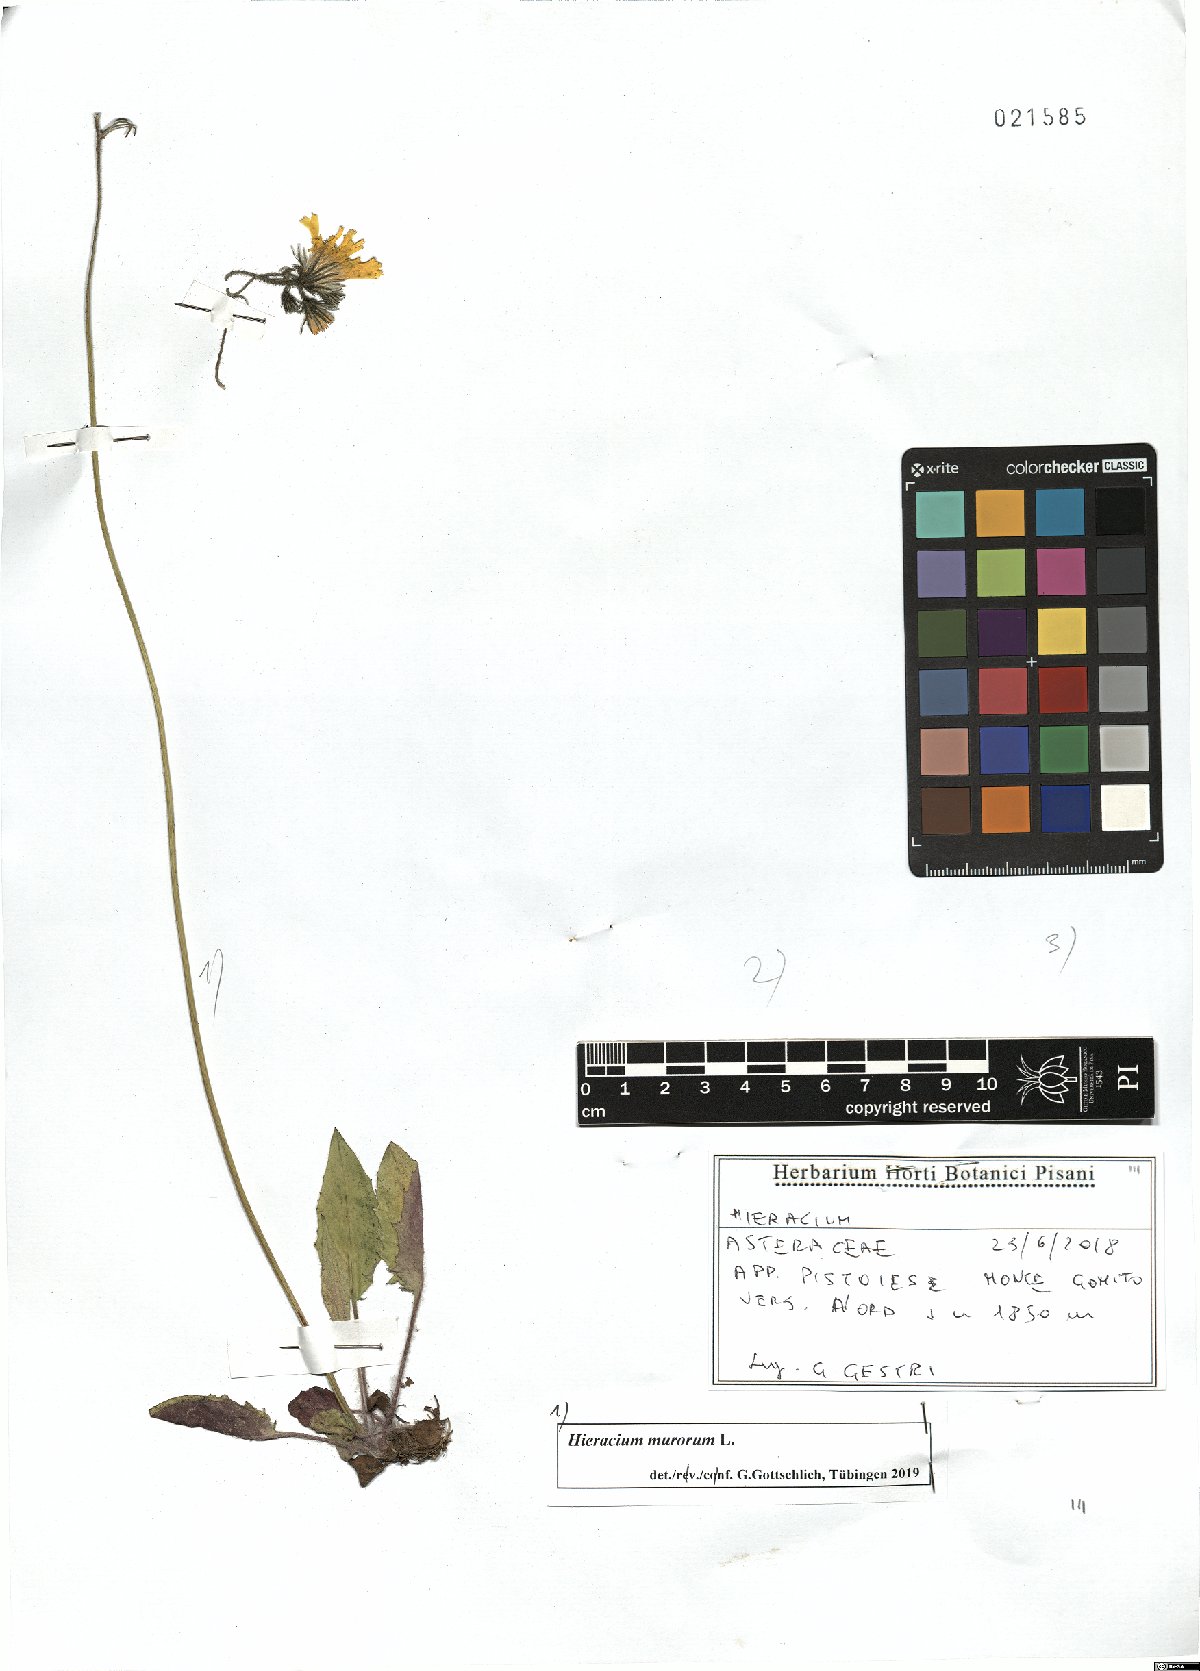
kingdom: Plantae
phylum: Tracheophyta
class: Magnoliopsida
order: Asterales
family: Asteraceae
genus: Hieracium
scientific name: Hieracium murorum
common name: Wall hawkweed
